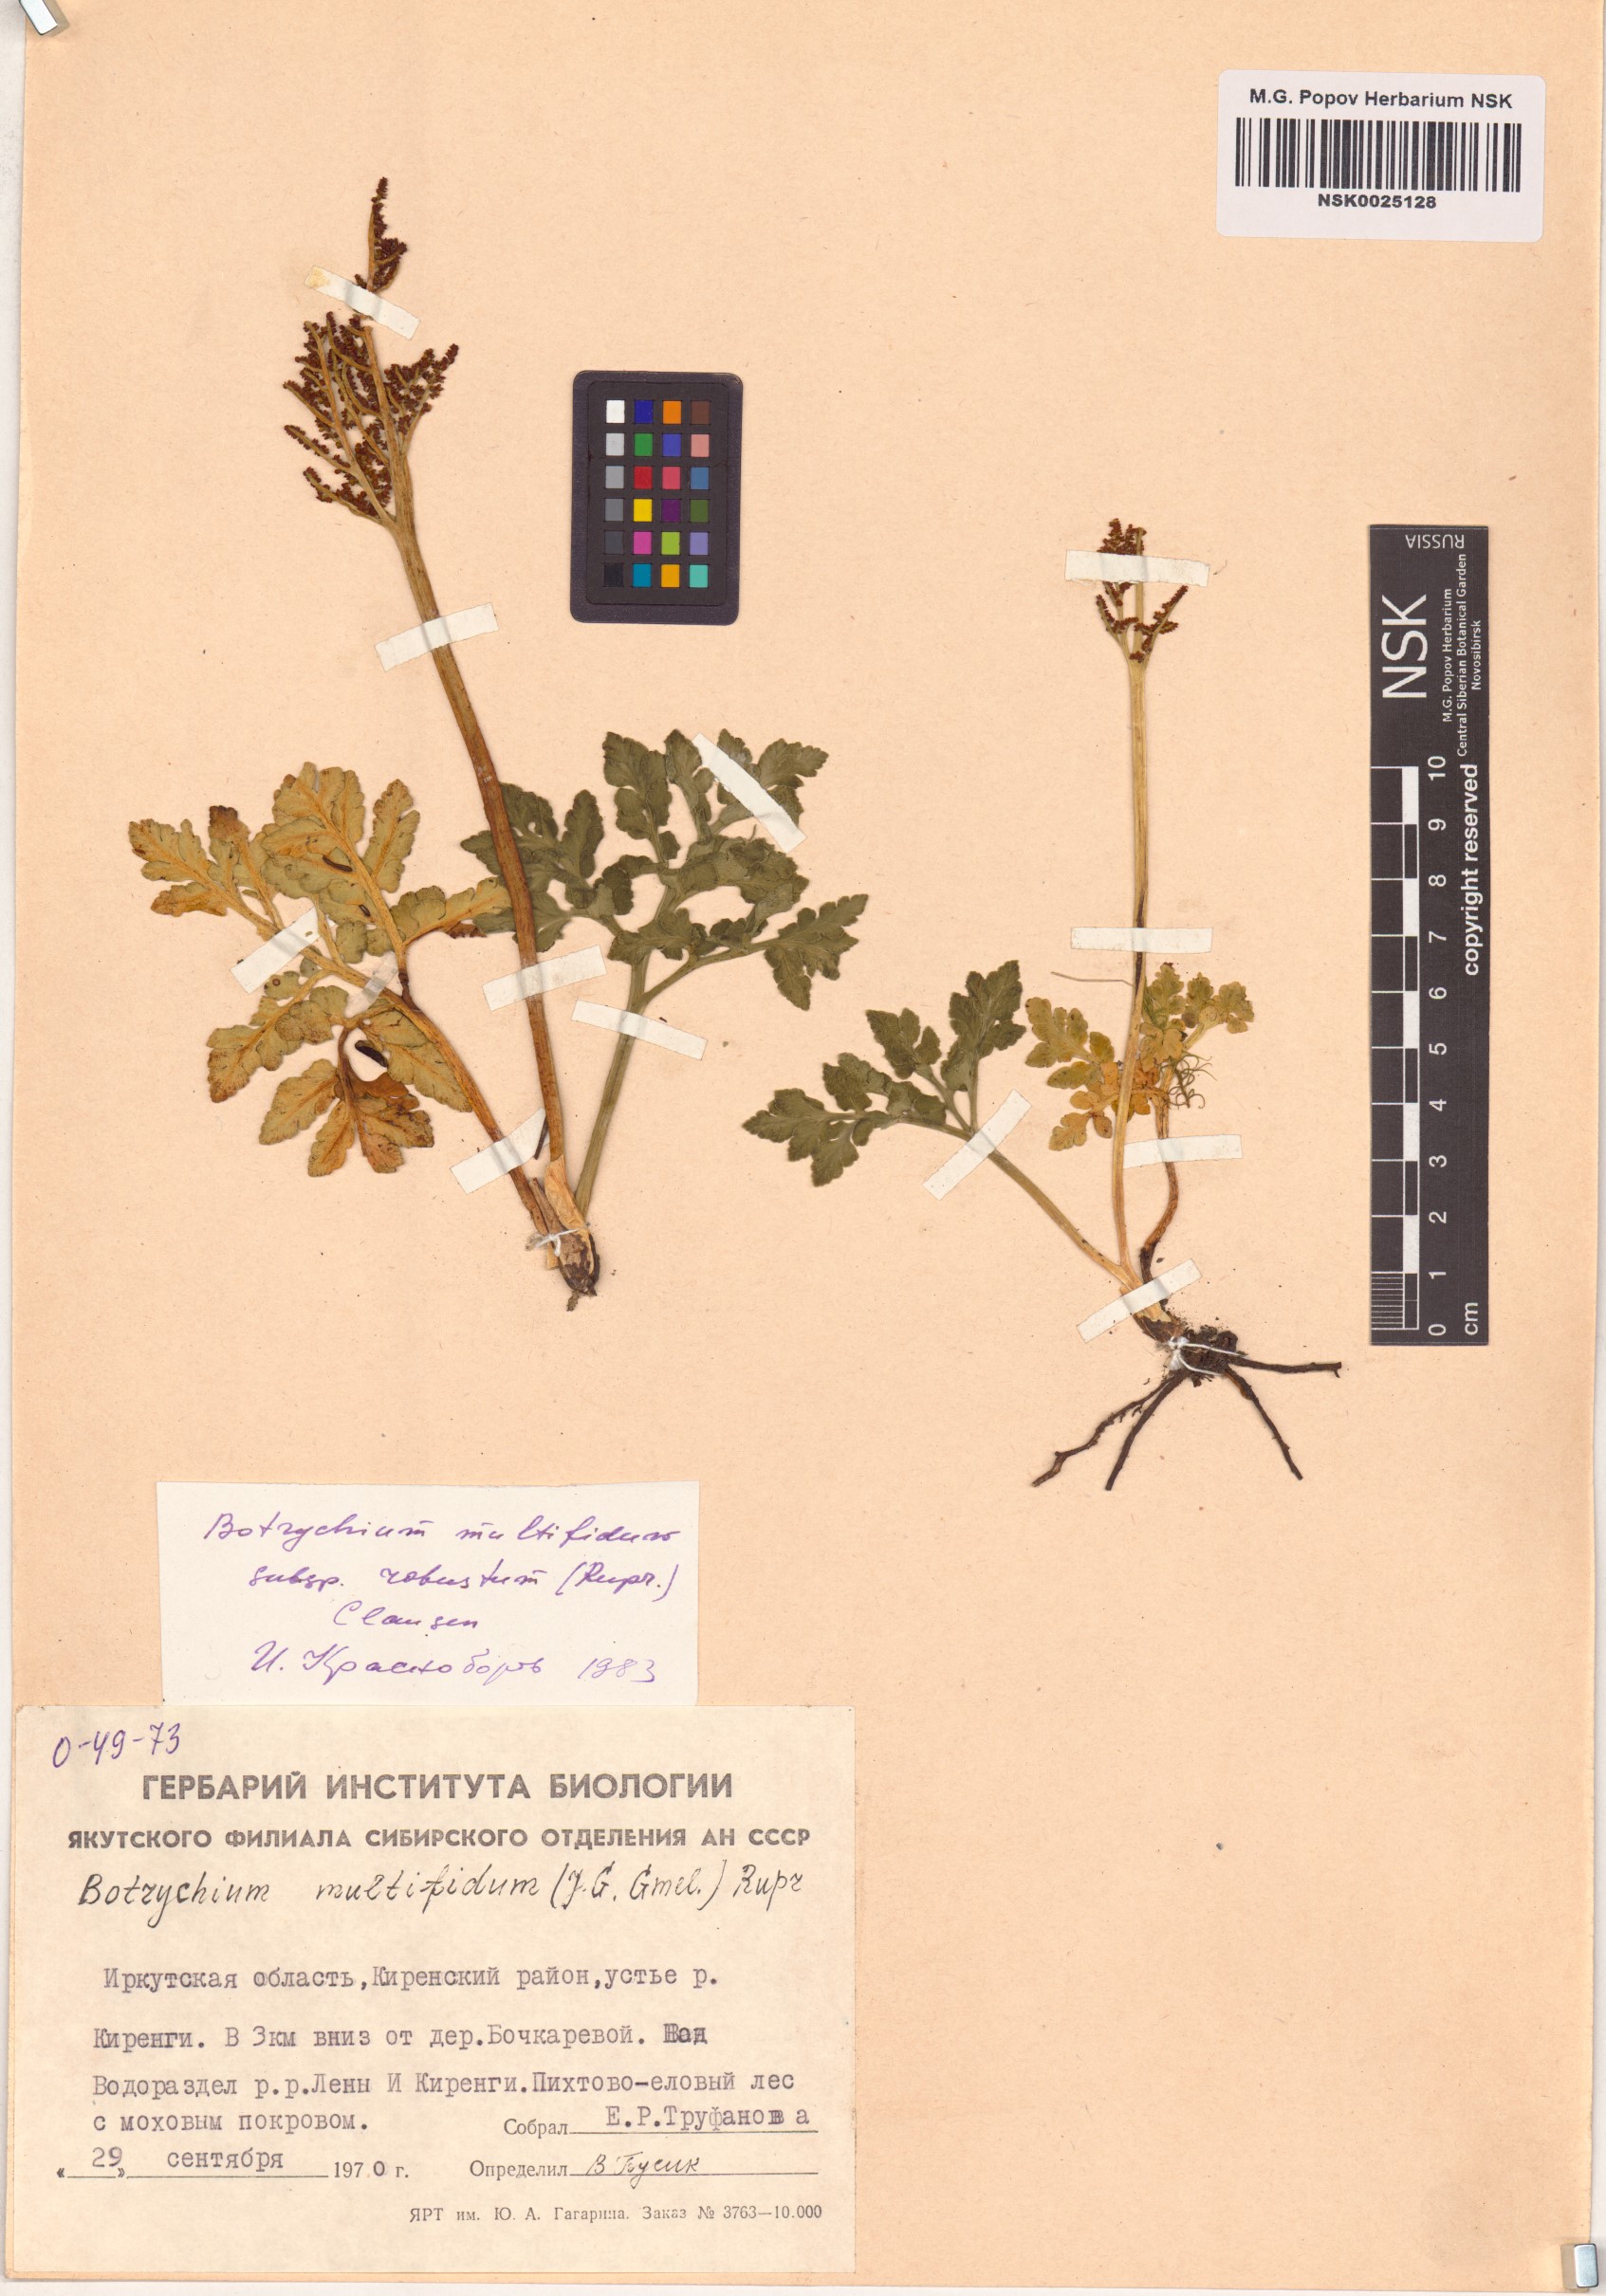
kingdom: Plantae
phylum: Tracheophyta
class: Polypodiopsida
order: Ophioglossales
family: Ophioglossaceae
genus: Sceptridium
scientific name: Sceptridium multifidum
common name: Leathery grape fern
